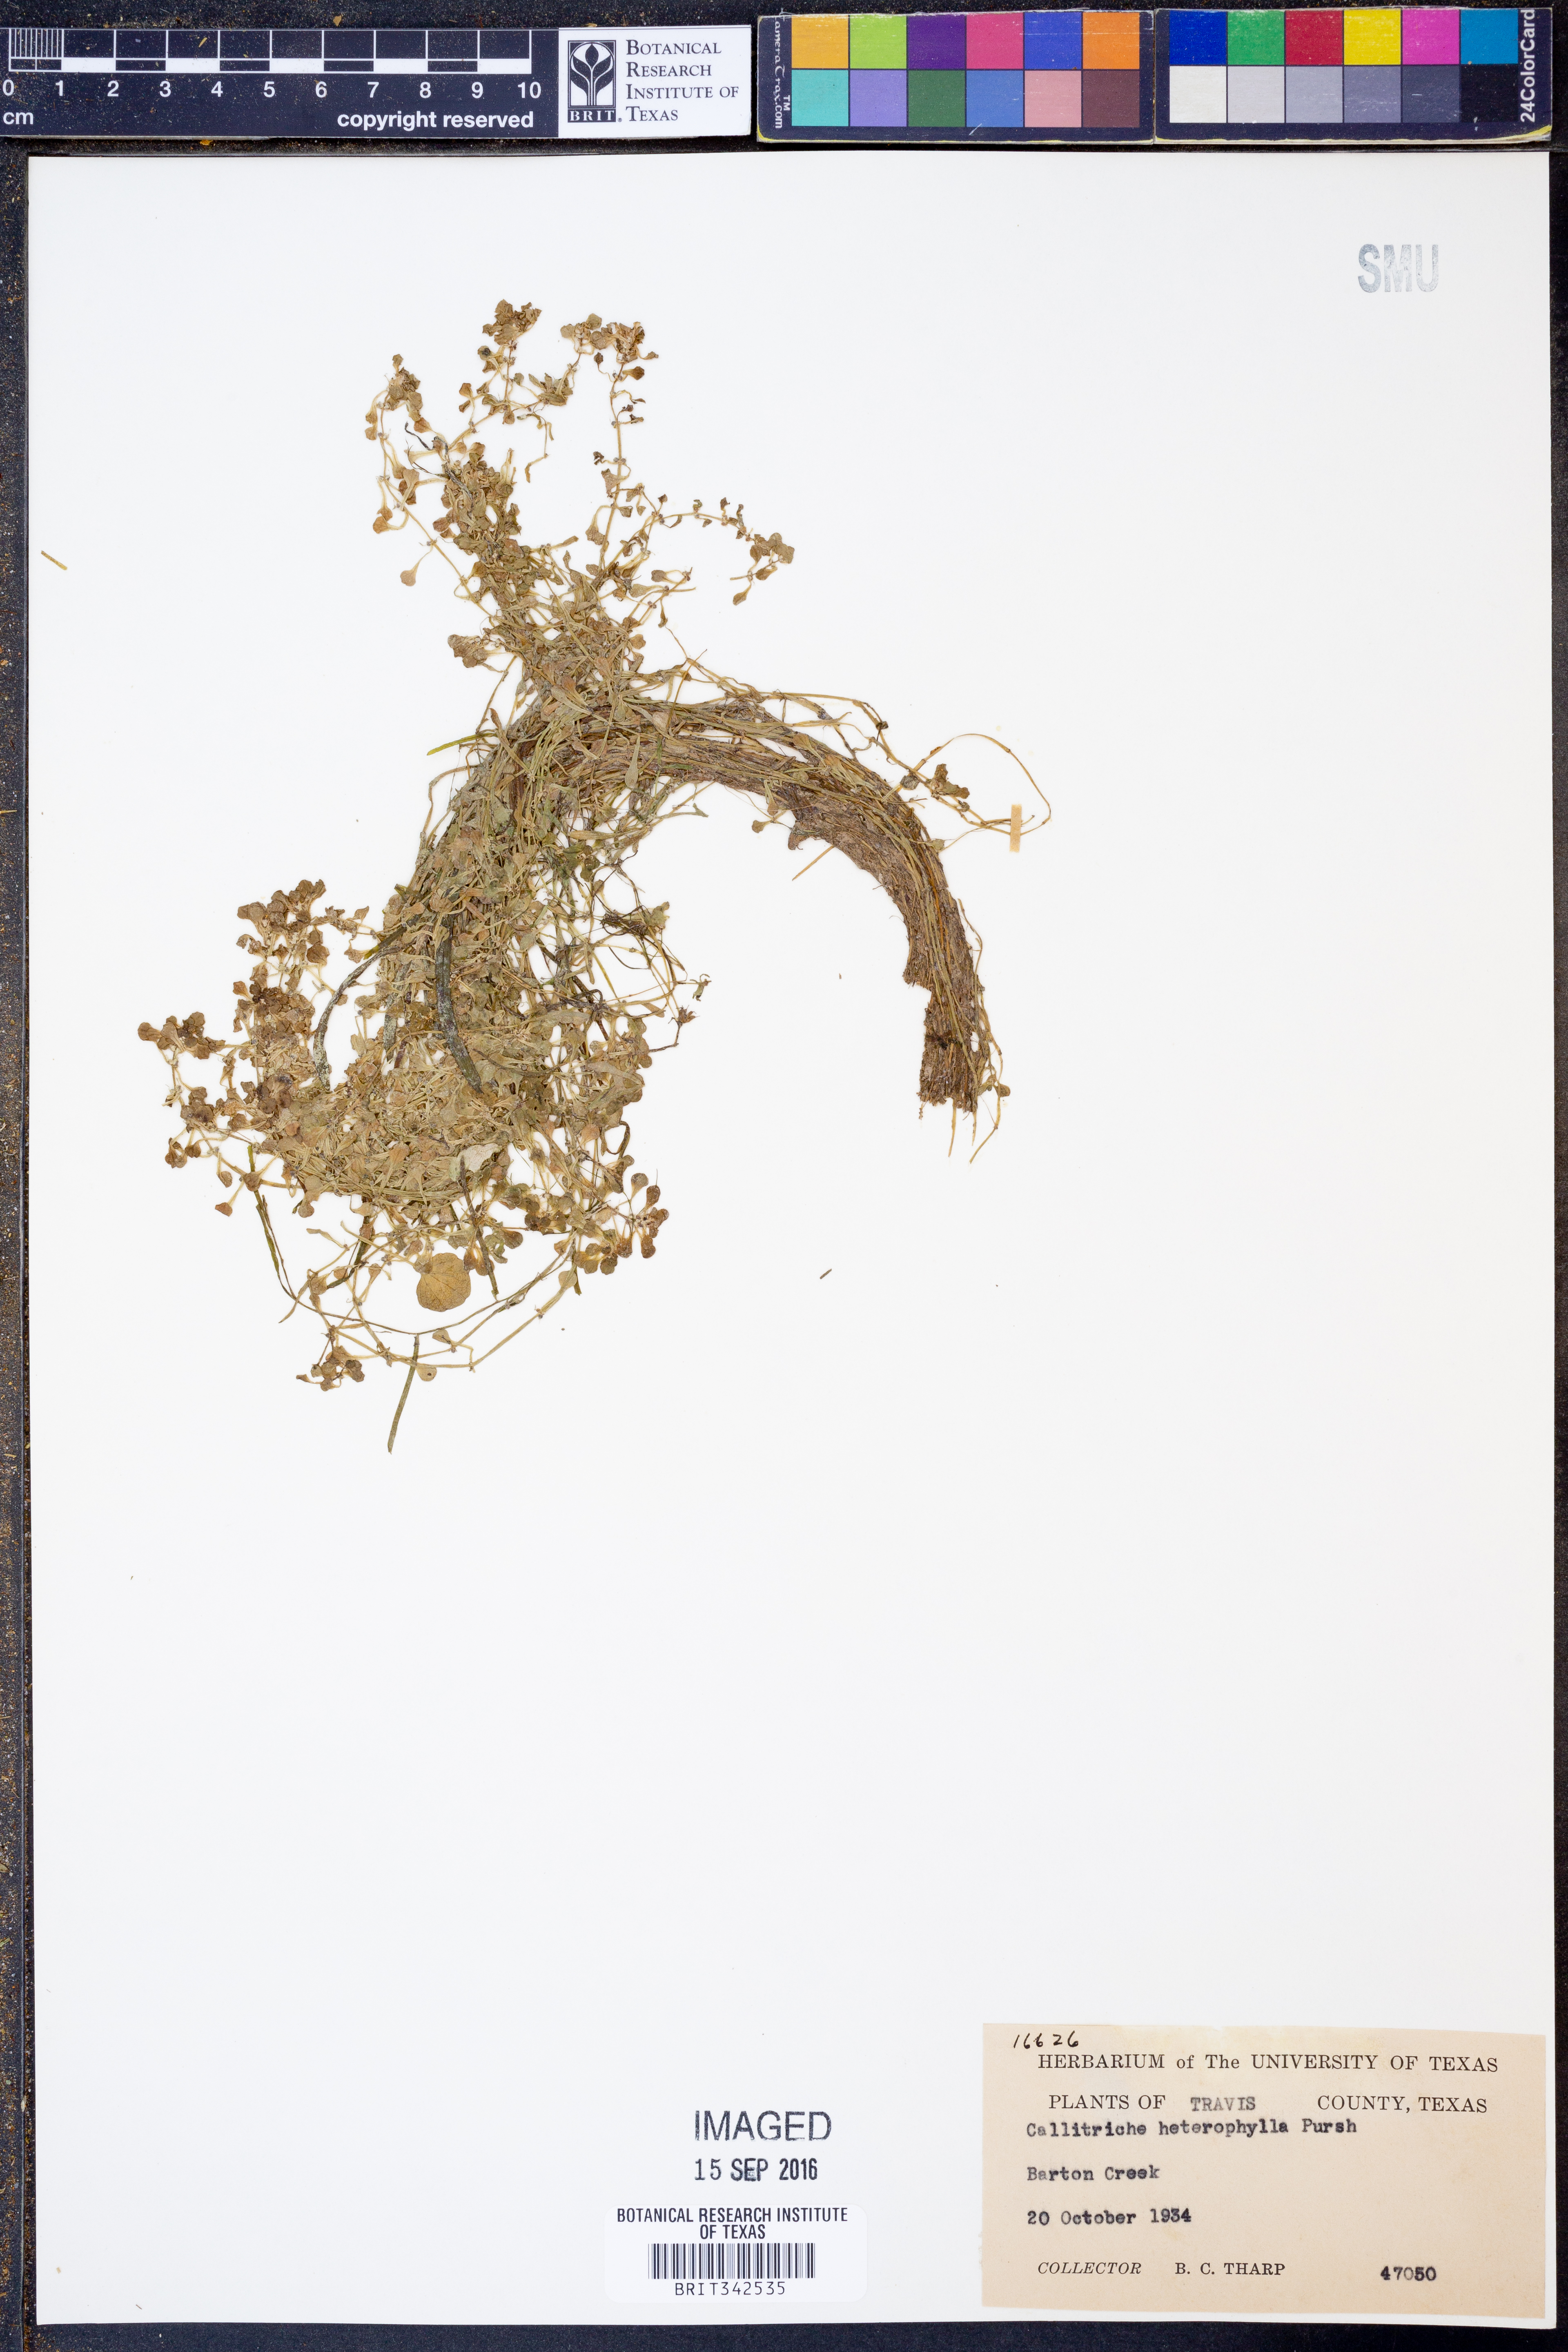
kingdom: Plantae
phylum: Tracheophyta
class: Magnoliopsida
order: Lamiales
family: Plantaginaceae
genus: Callitriche
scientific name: Callitriche heterophylla
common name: Two-headed water-starwort
